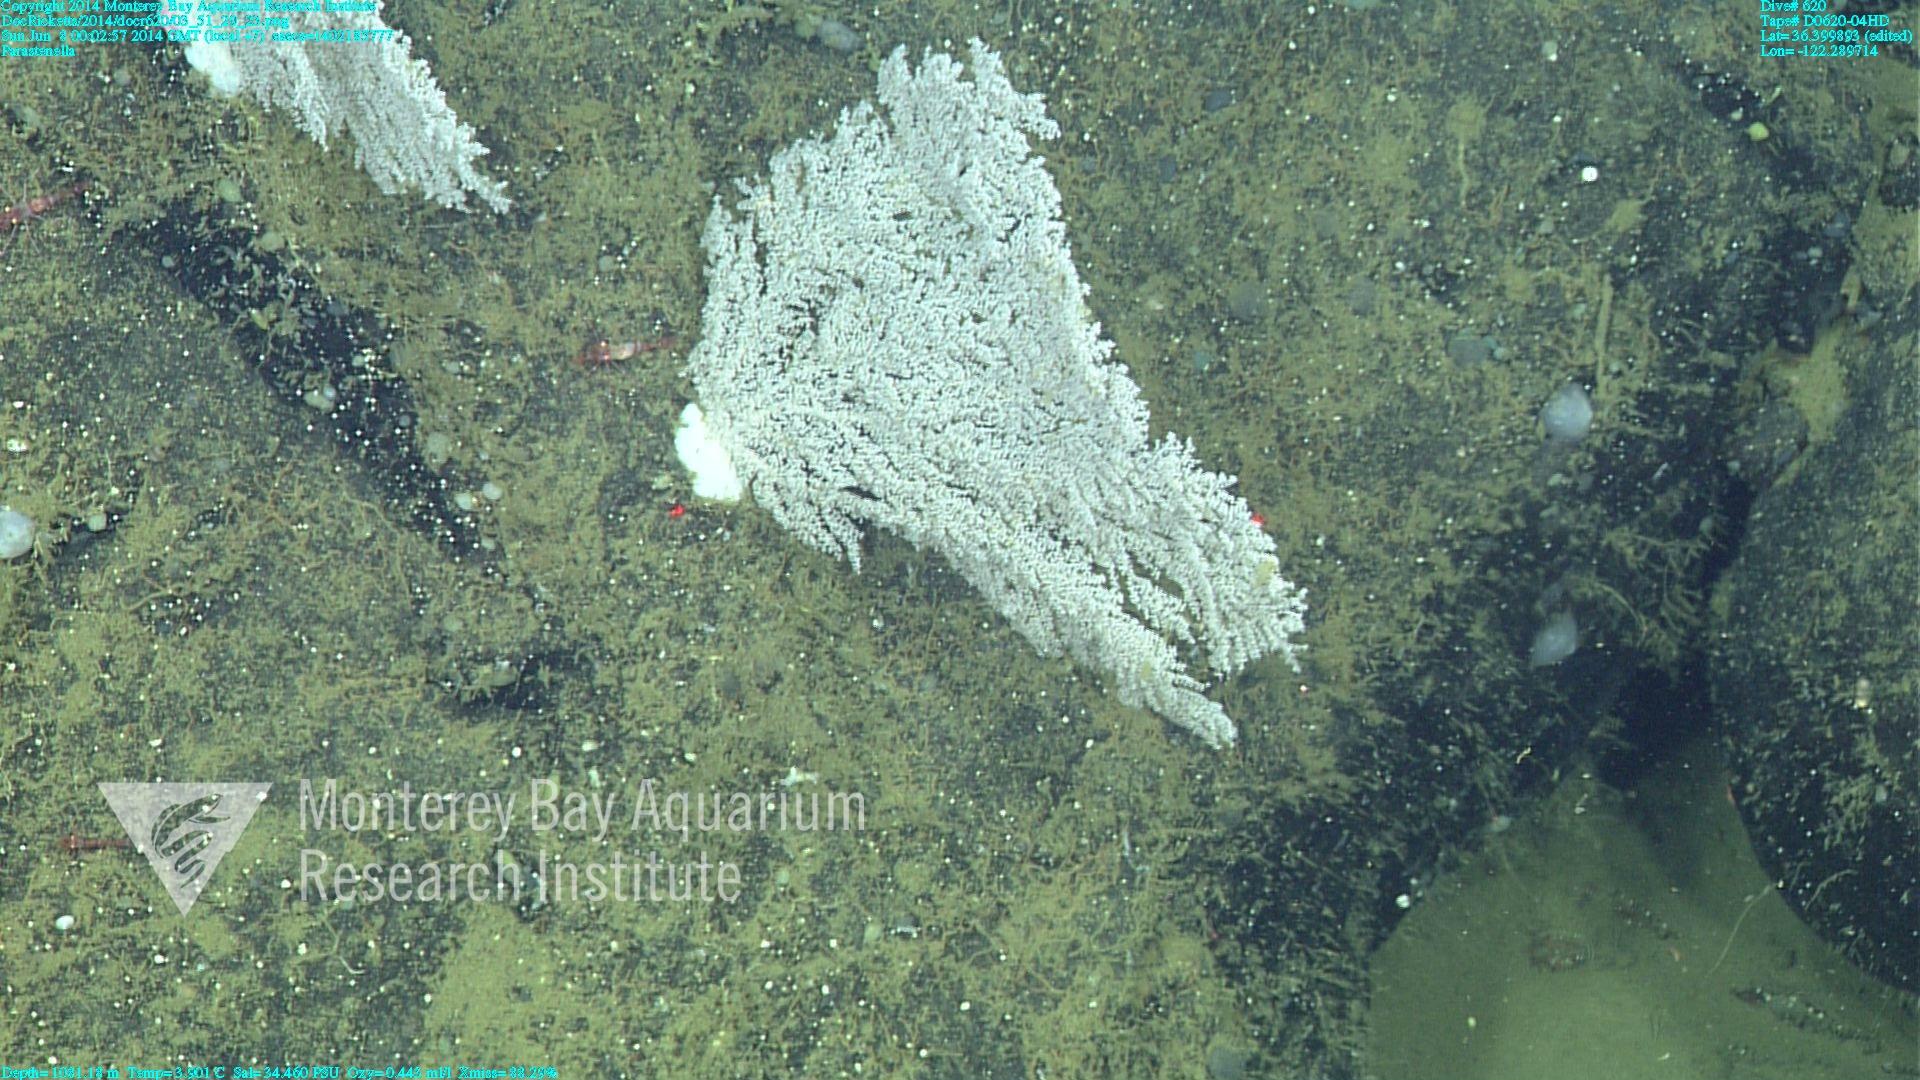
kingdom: Animalia
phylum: Cnidaria
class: Anthozoa
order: Scleralcyonacea
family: Primnoidae
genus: Parastenella
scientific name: Parastenella
